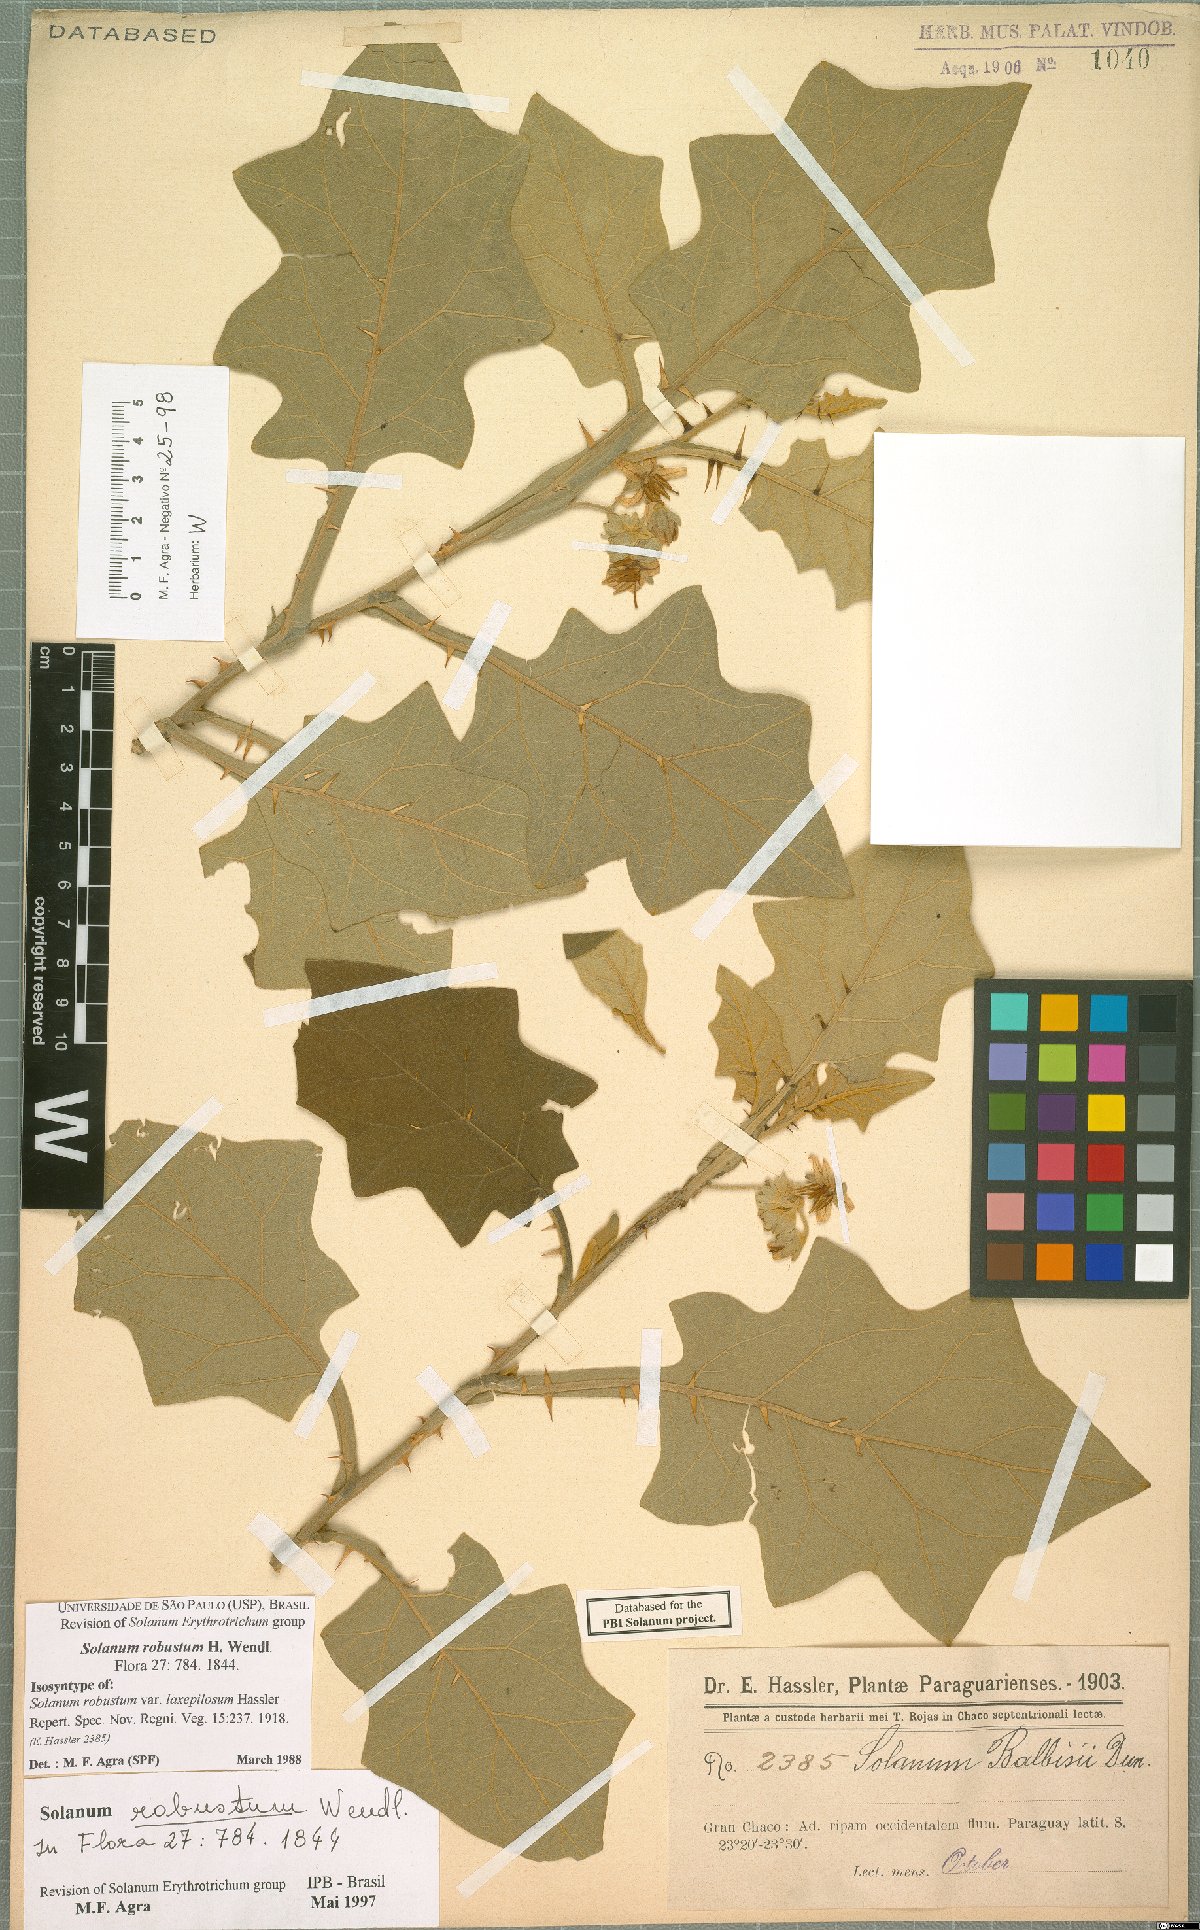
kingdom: Plantae
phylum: Tracheophyta
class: Magnoliopsida
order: Solanales
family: Solanaceae
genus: Solanum
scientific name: Solanum robustum
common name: Shrubby nightshade
